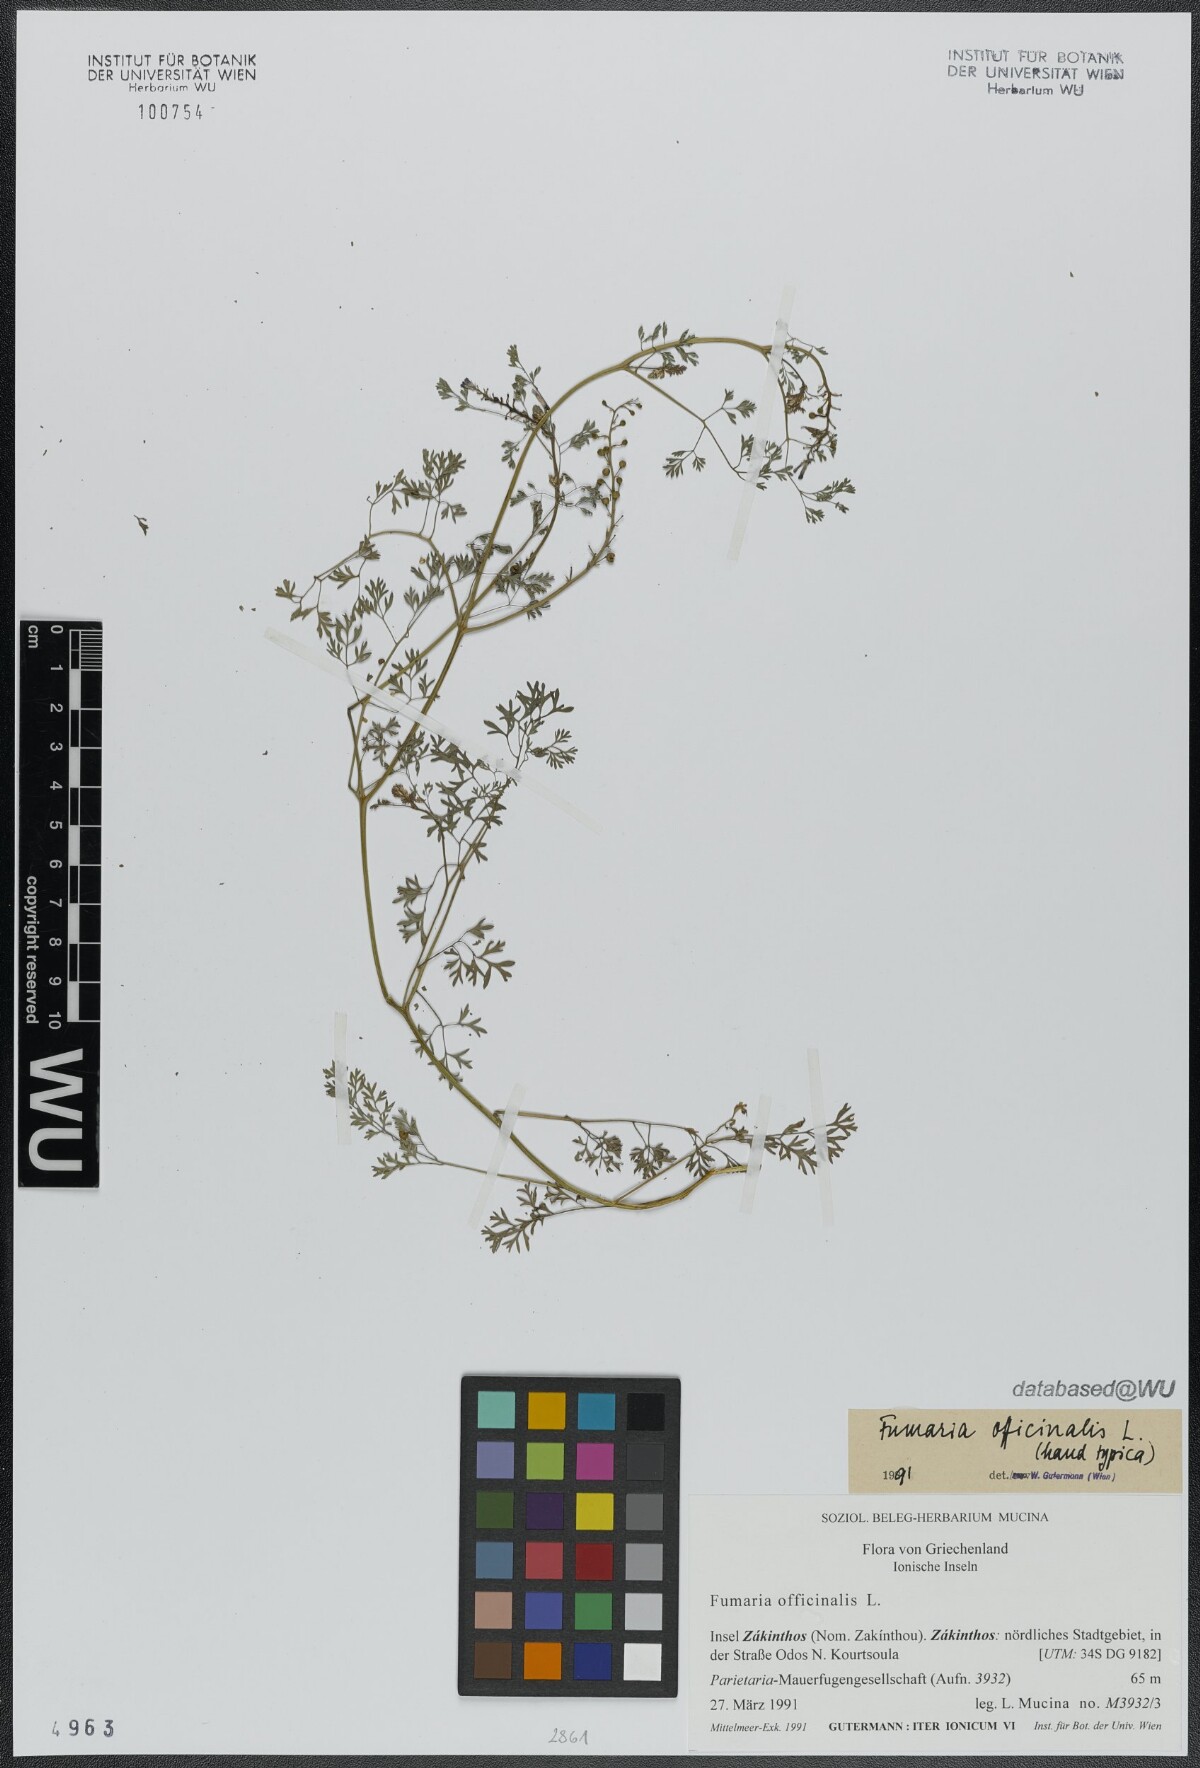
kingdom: Plantae
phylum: Tracheophyta
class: Magnoliopsida
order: Ranunculales
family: Papaveraceae
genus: Fumaria
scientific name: Fumaria officinalis
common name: Common fumitory
